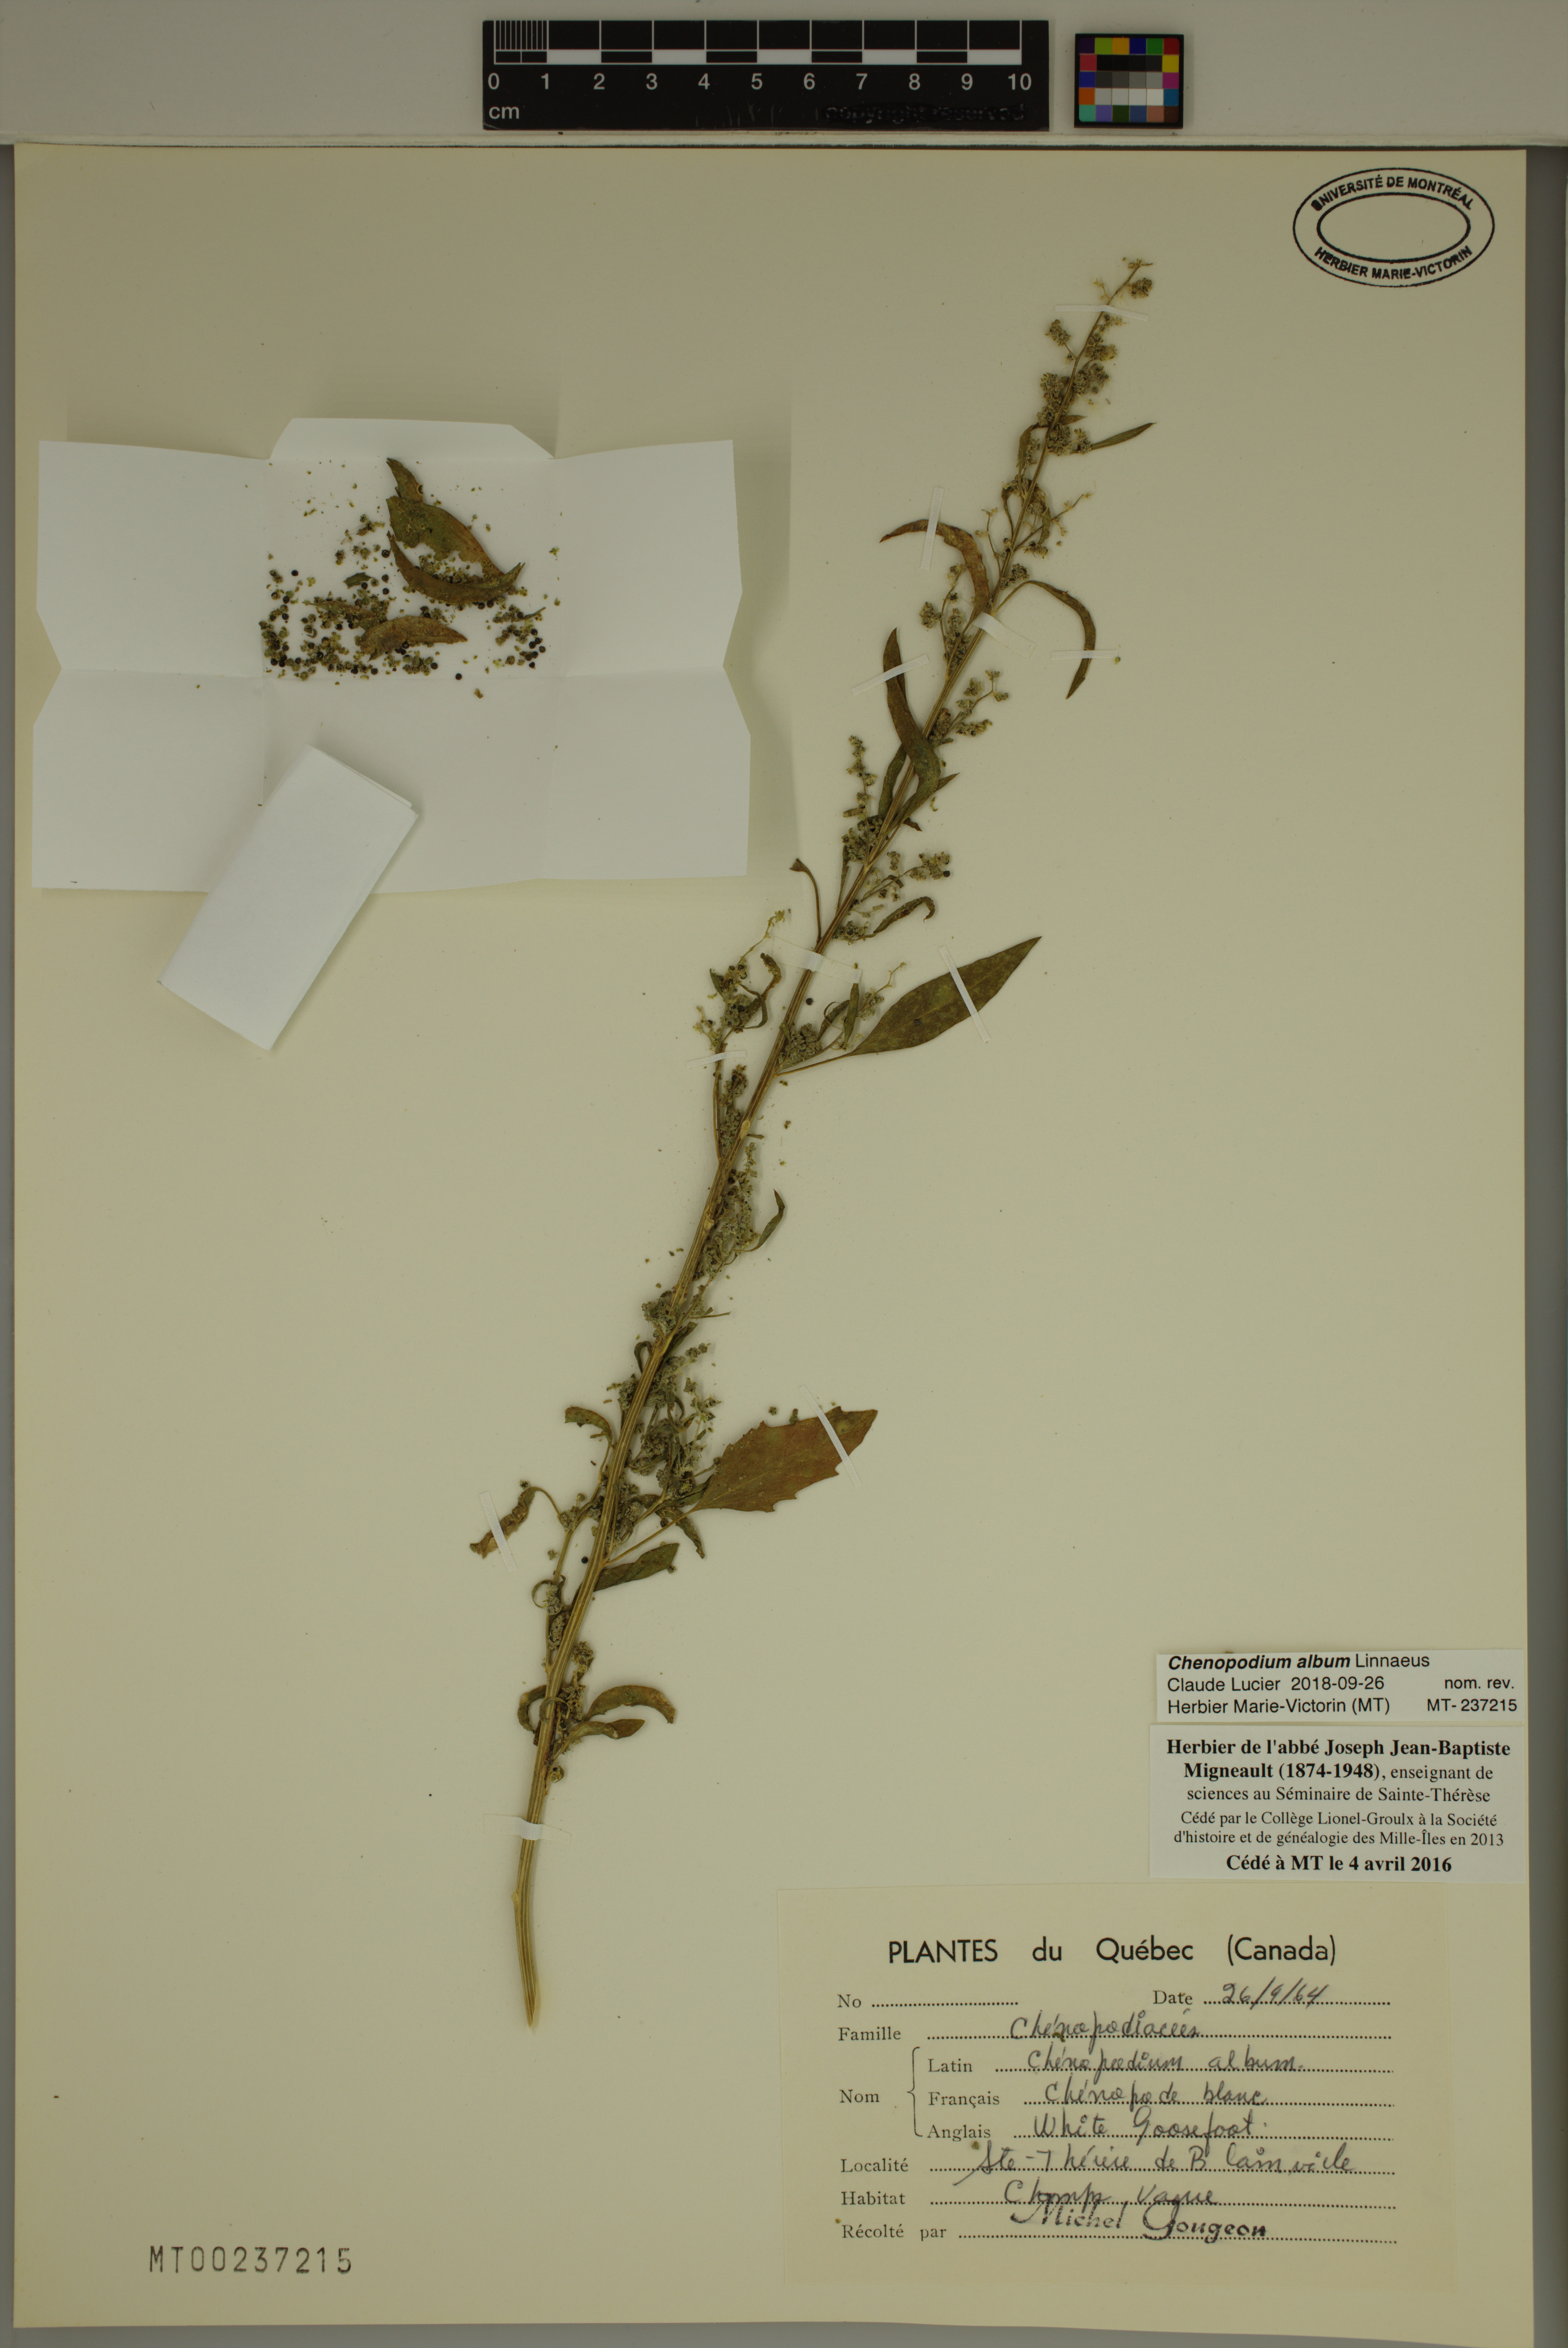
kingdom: Plantae
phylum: Tracheophyta
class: Magnoliopsida
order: Caryophyllales
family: Amaranthaceae
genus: Chenopodium
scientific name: Chenopodium album
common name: Fat-hen
